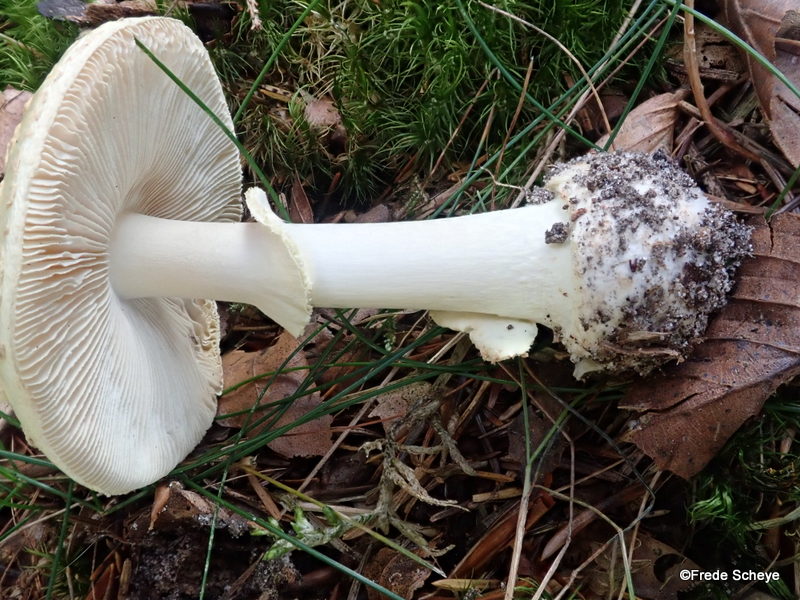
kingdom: Fungi
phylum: Basidiomycota
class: Agaricomycetes
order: Agaricales
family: Amanitaceae
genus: Amanita
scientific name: Amanita citrina
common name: kugleknoldet fluesvamp
